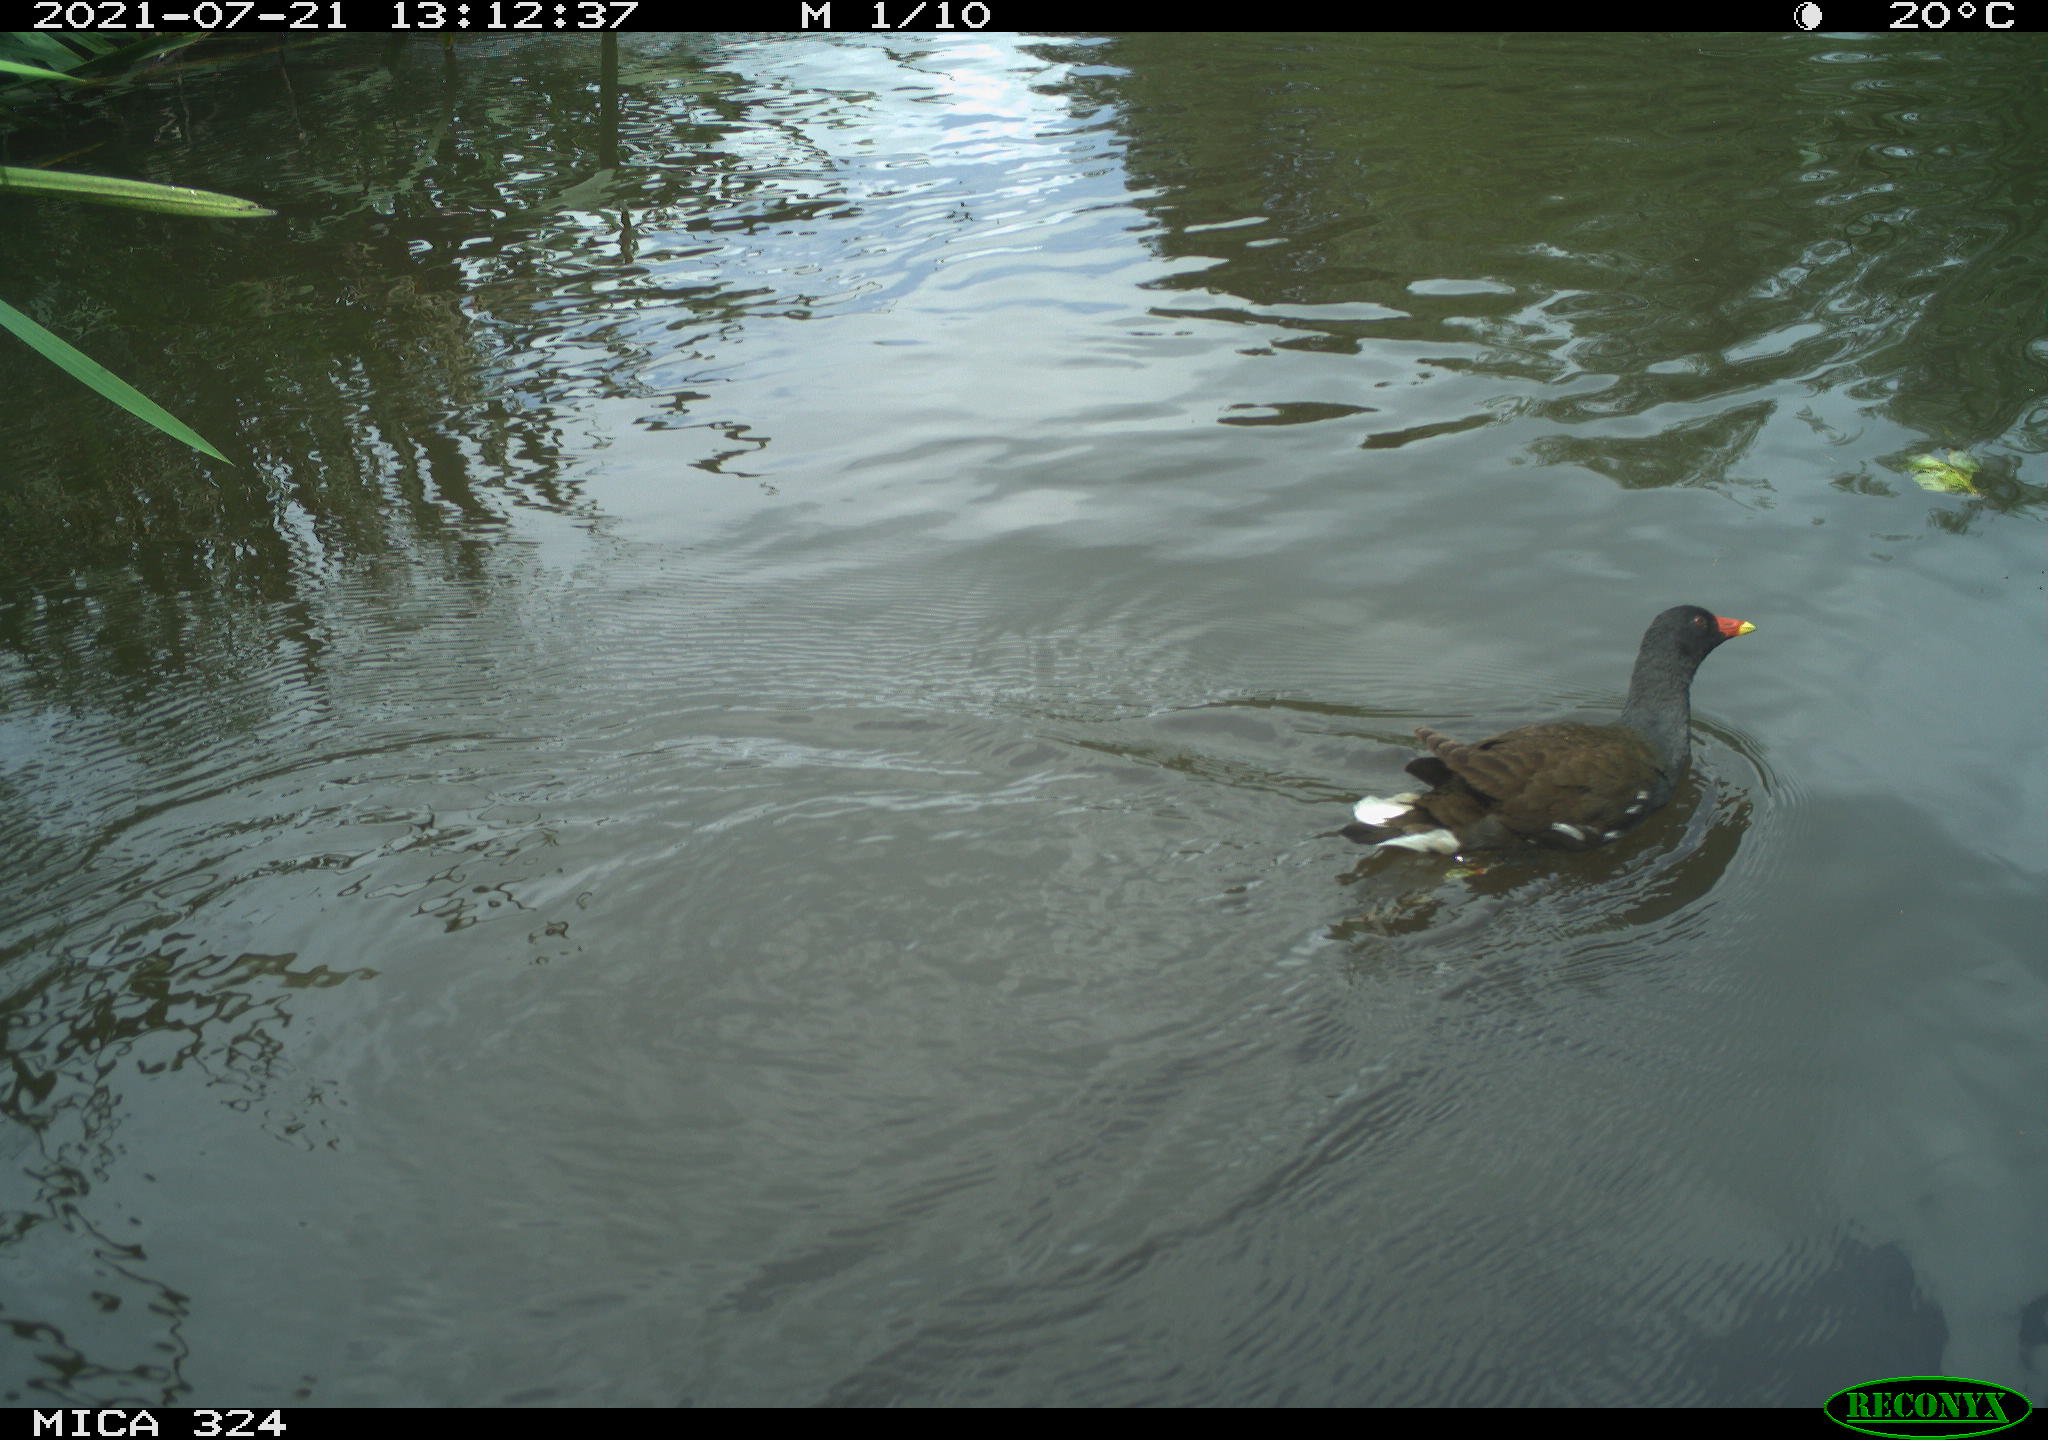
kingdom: Animalia
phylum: Chordata
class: Aves
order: Gruiformes
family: Rallidae
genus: Gallinula
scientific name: Gallinula chloropus
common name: Common moorhen
